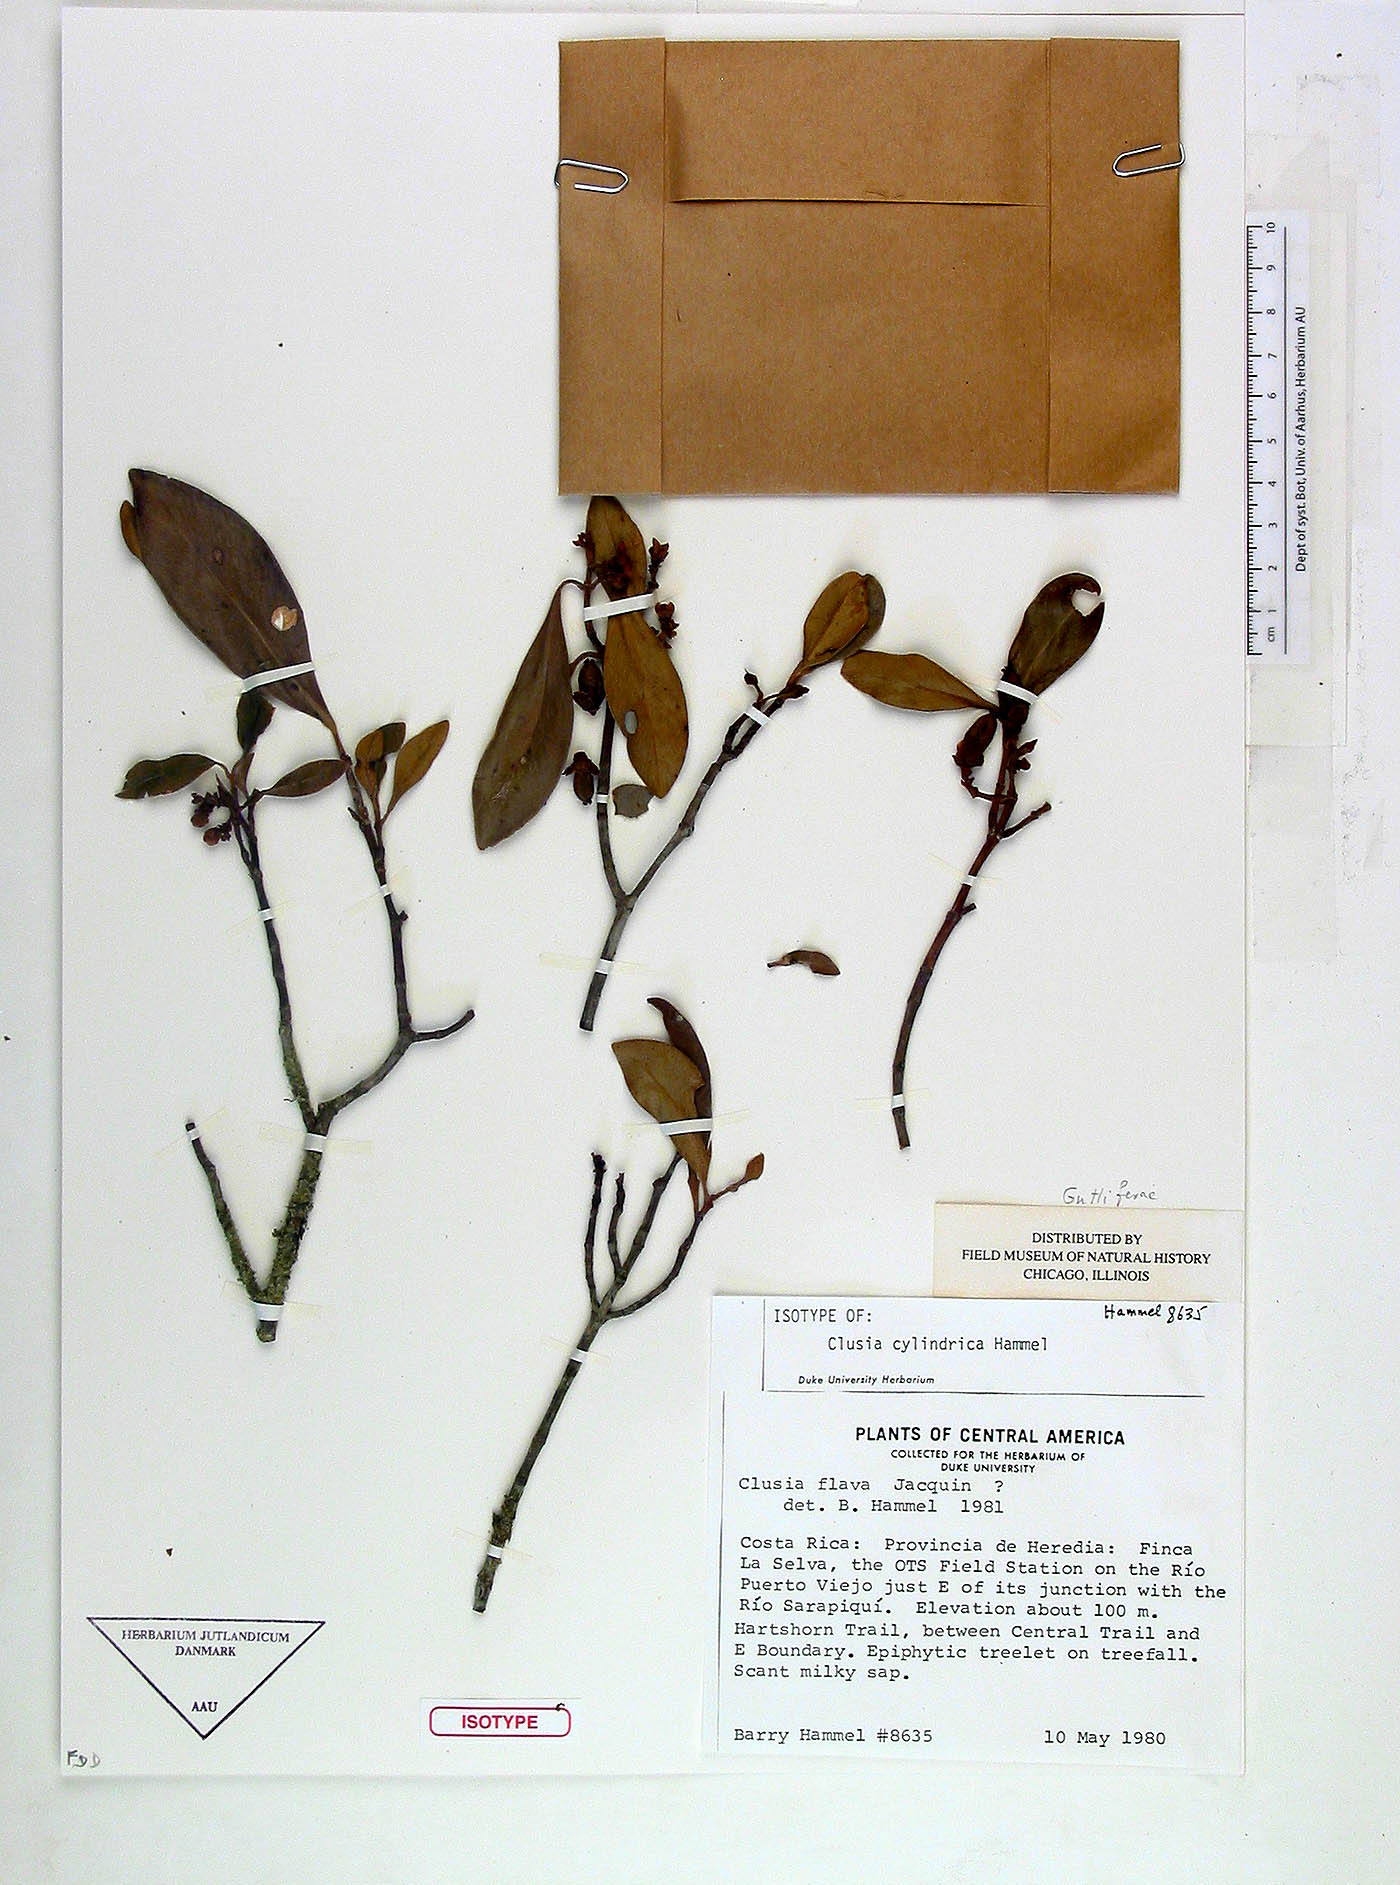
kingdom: Plantae
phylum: Tracheophyta
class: Magnoliopsida
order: Malpighiales
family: Clusiaceae
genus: Clusia
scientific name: Clusia cylindrica
